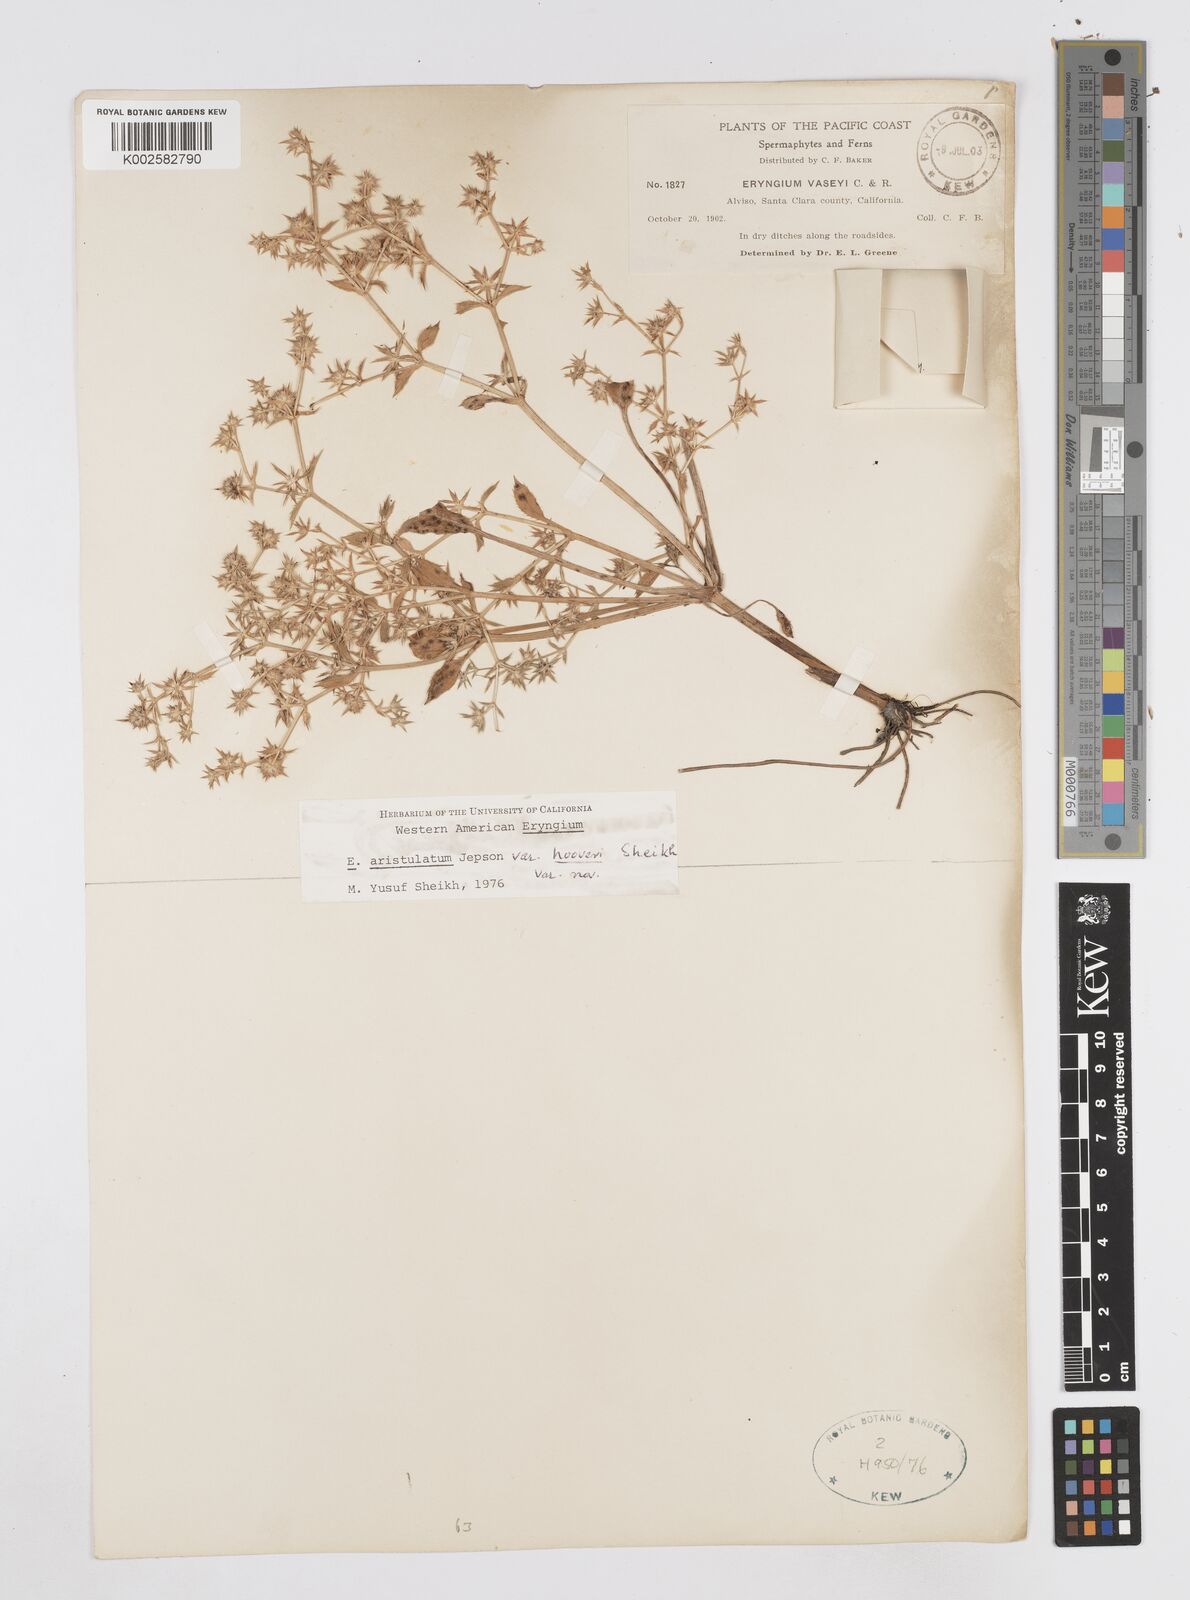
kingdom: Plantae
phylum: Tracheophyta
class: Magnoliopsida
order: Apiales
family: Apiaceae
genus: Eryngium
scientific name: Eryngium aristulatum
